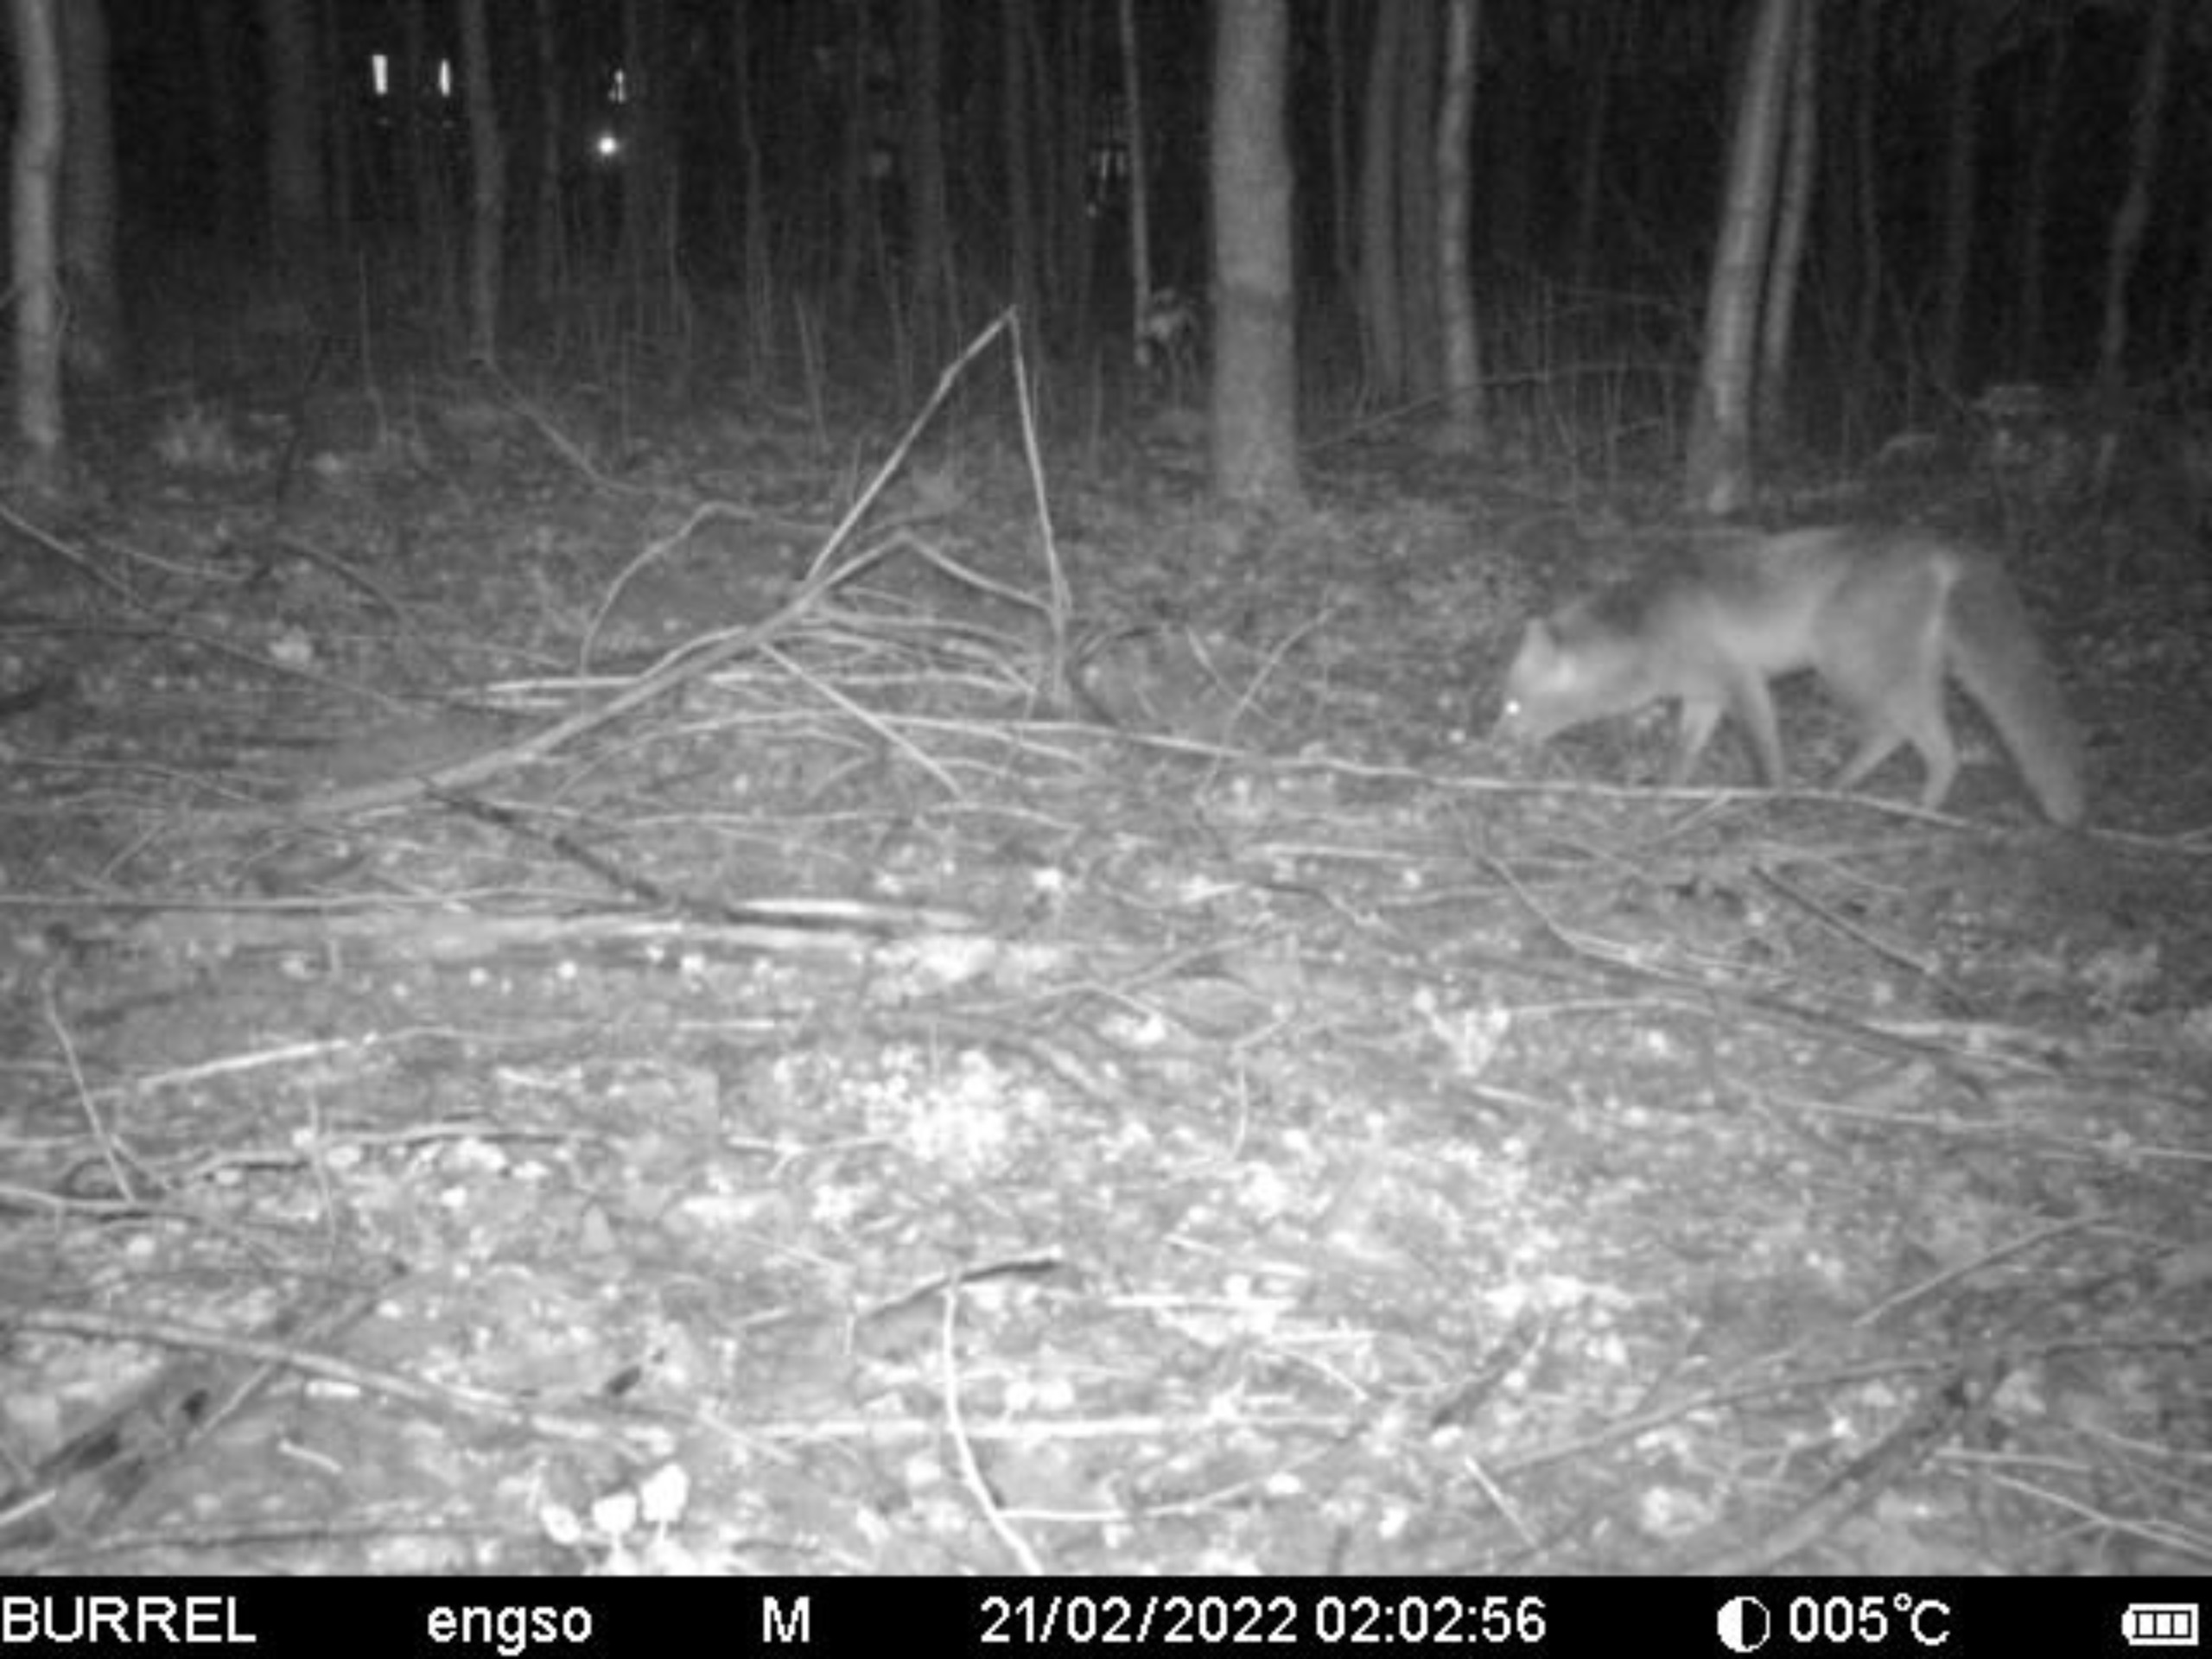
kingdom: Animalia
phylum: Chordata
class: Mammalia
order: Carnivora
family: Canidae
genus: Vulpes
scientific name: Vulpes vulpes
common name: Ræv
